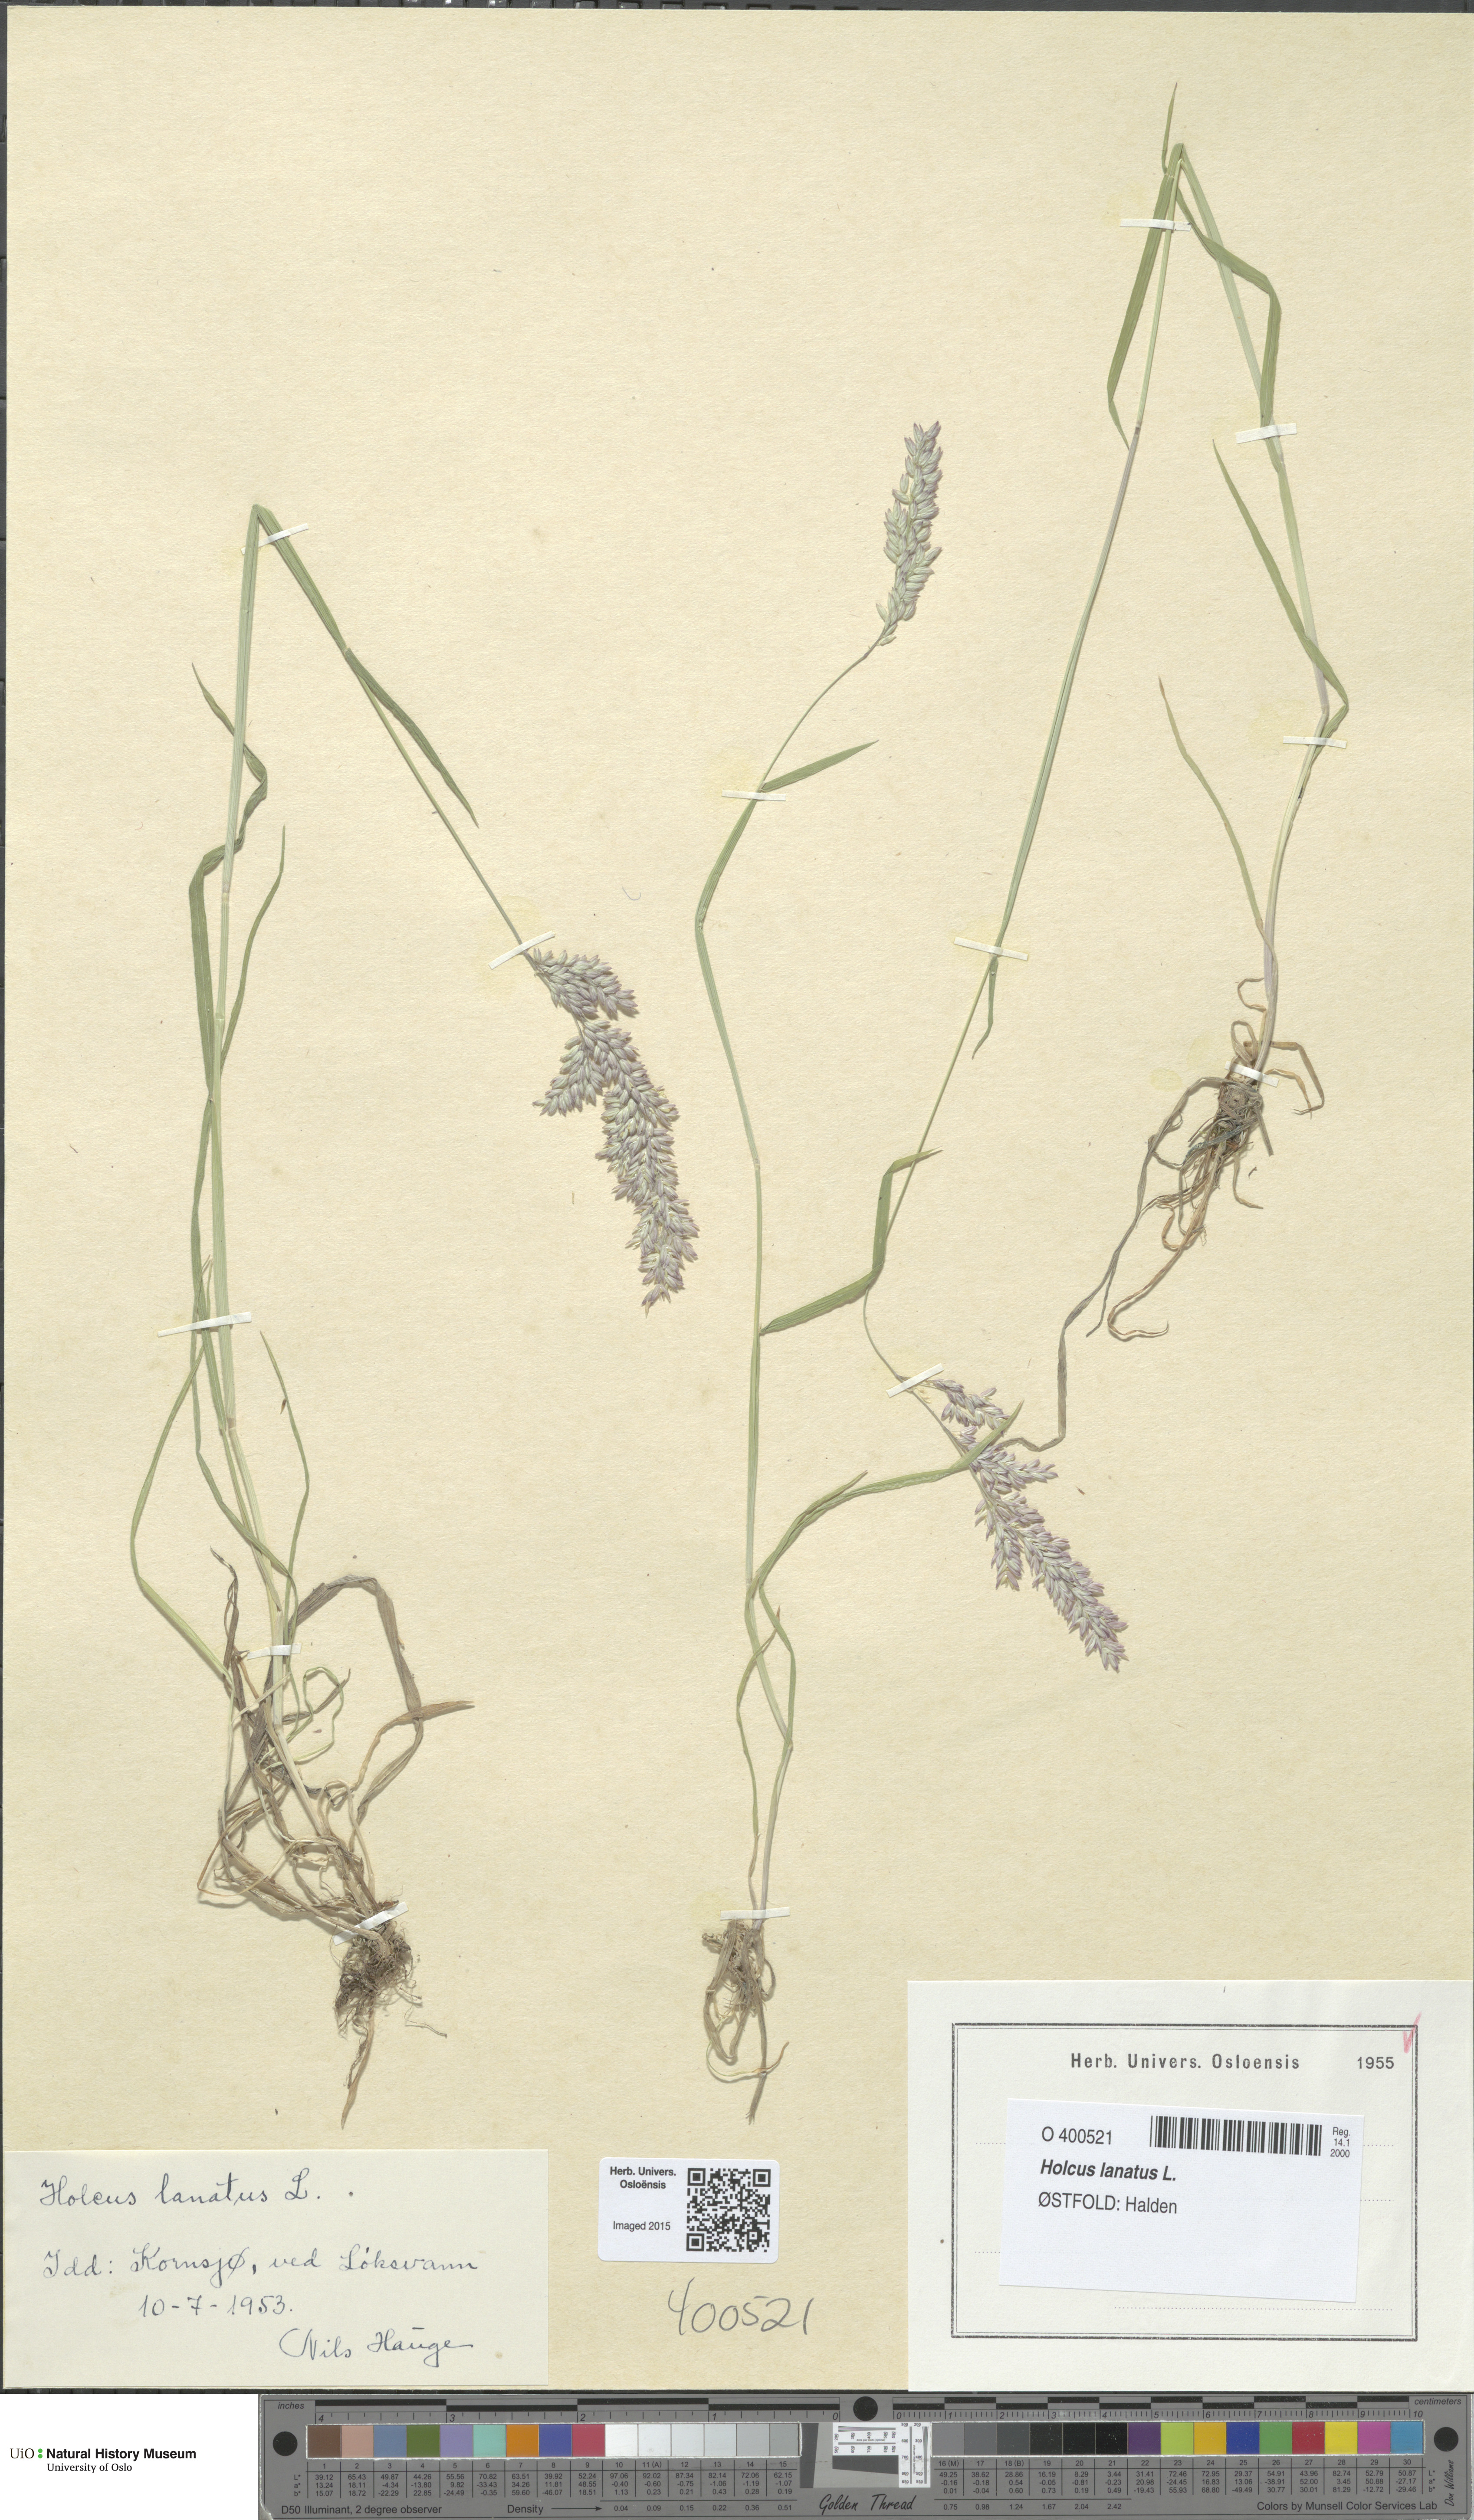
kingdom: Plantae
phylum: Tracheophyta
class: Liliopsida
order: Poales
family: Poaceae
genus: Holcus
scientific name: Holcus lanatus
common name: Yorkshire-fog
